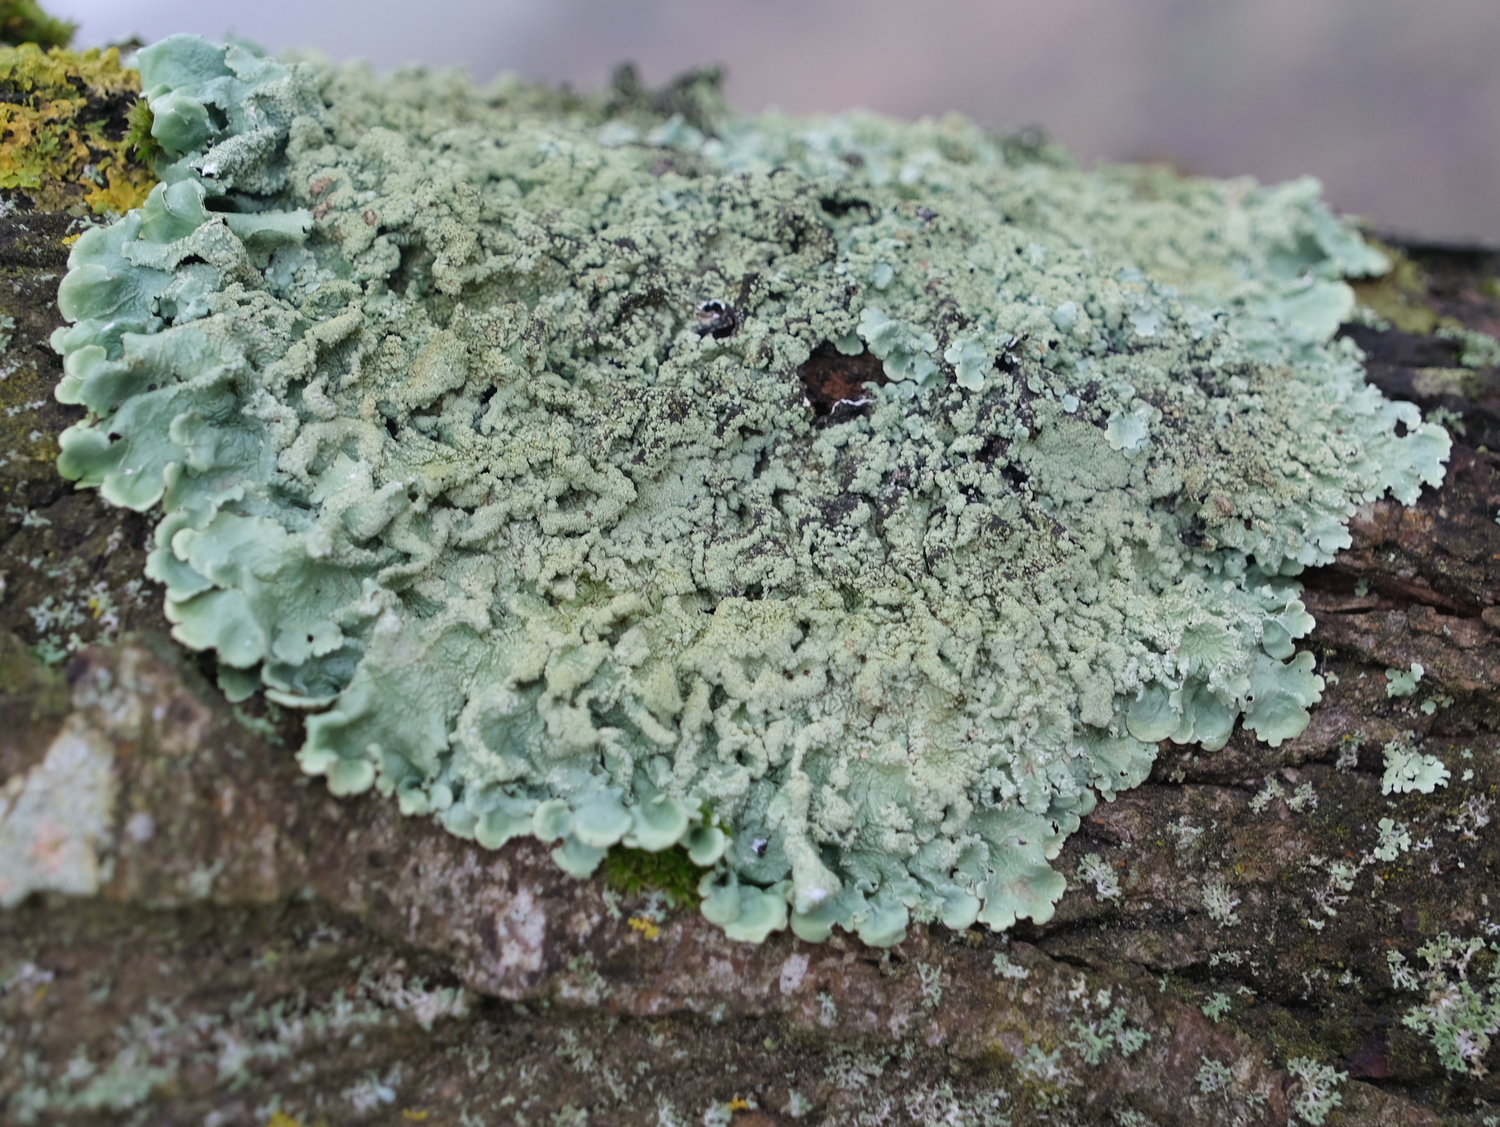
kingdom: Fungi
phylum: Ascomycota
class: Lecanoromycetes
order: Lecanorales
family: Parmeliaceae
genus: Flavoparmelia
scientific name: Flavoparmelia caperata
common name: gulgrøn skållav
